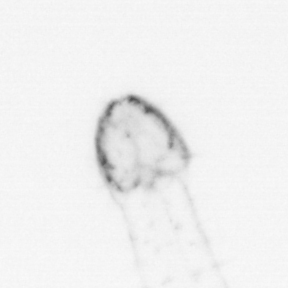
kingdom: Animalia
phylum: Chaetognatha
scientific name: Chaetognatha
